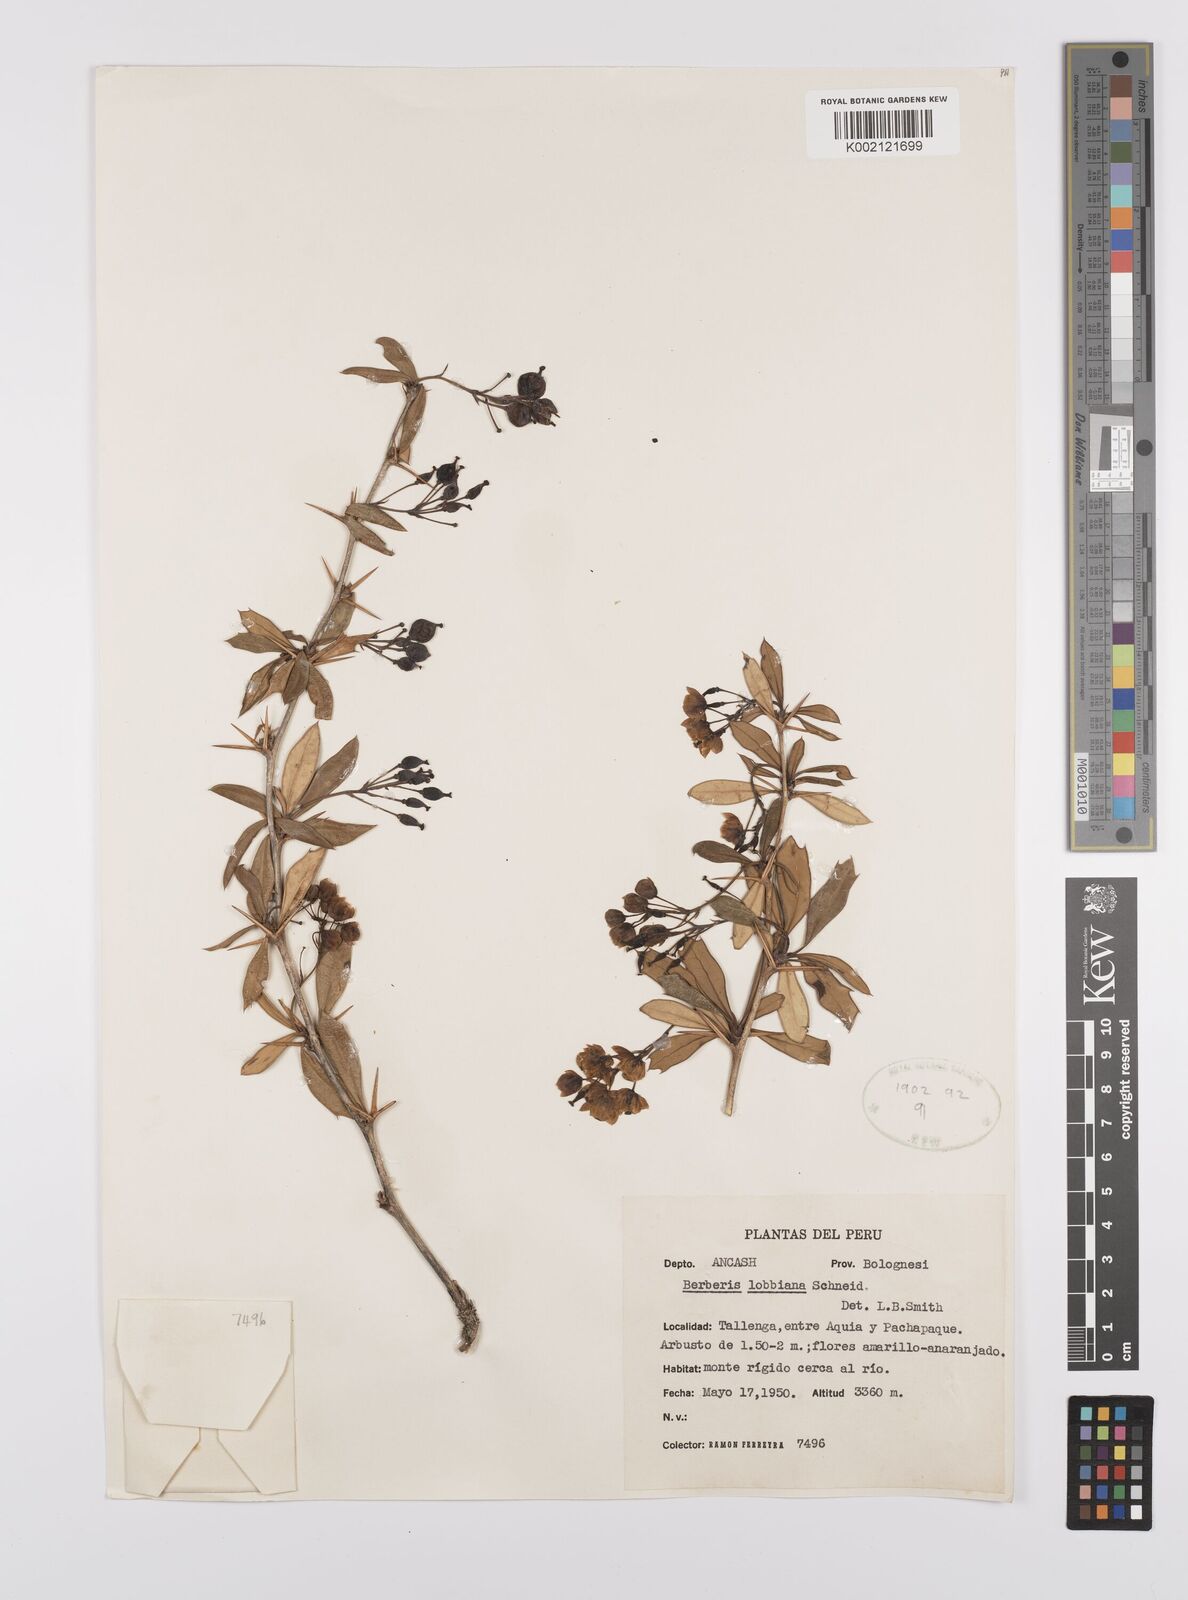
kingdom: Plantae
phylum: Tracheophyta
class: Magnoliopsida
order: Ranunculales
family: Berberidaceae
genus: Berberis
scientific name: Berberis lutea
